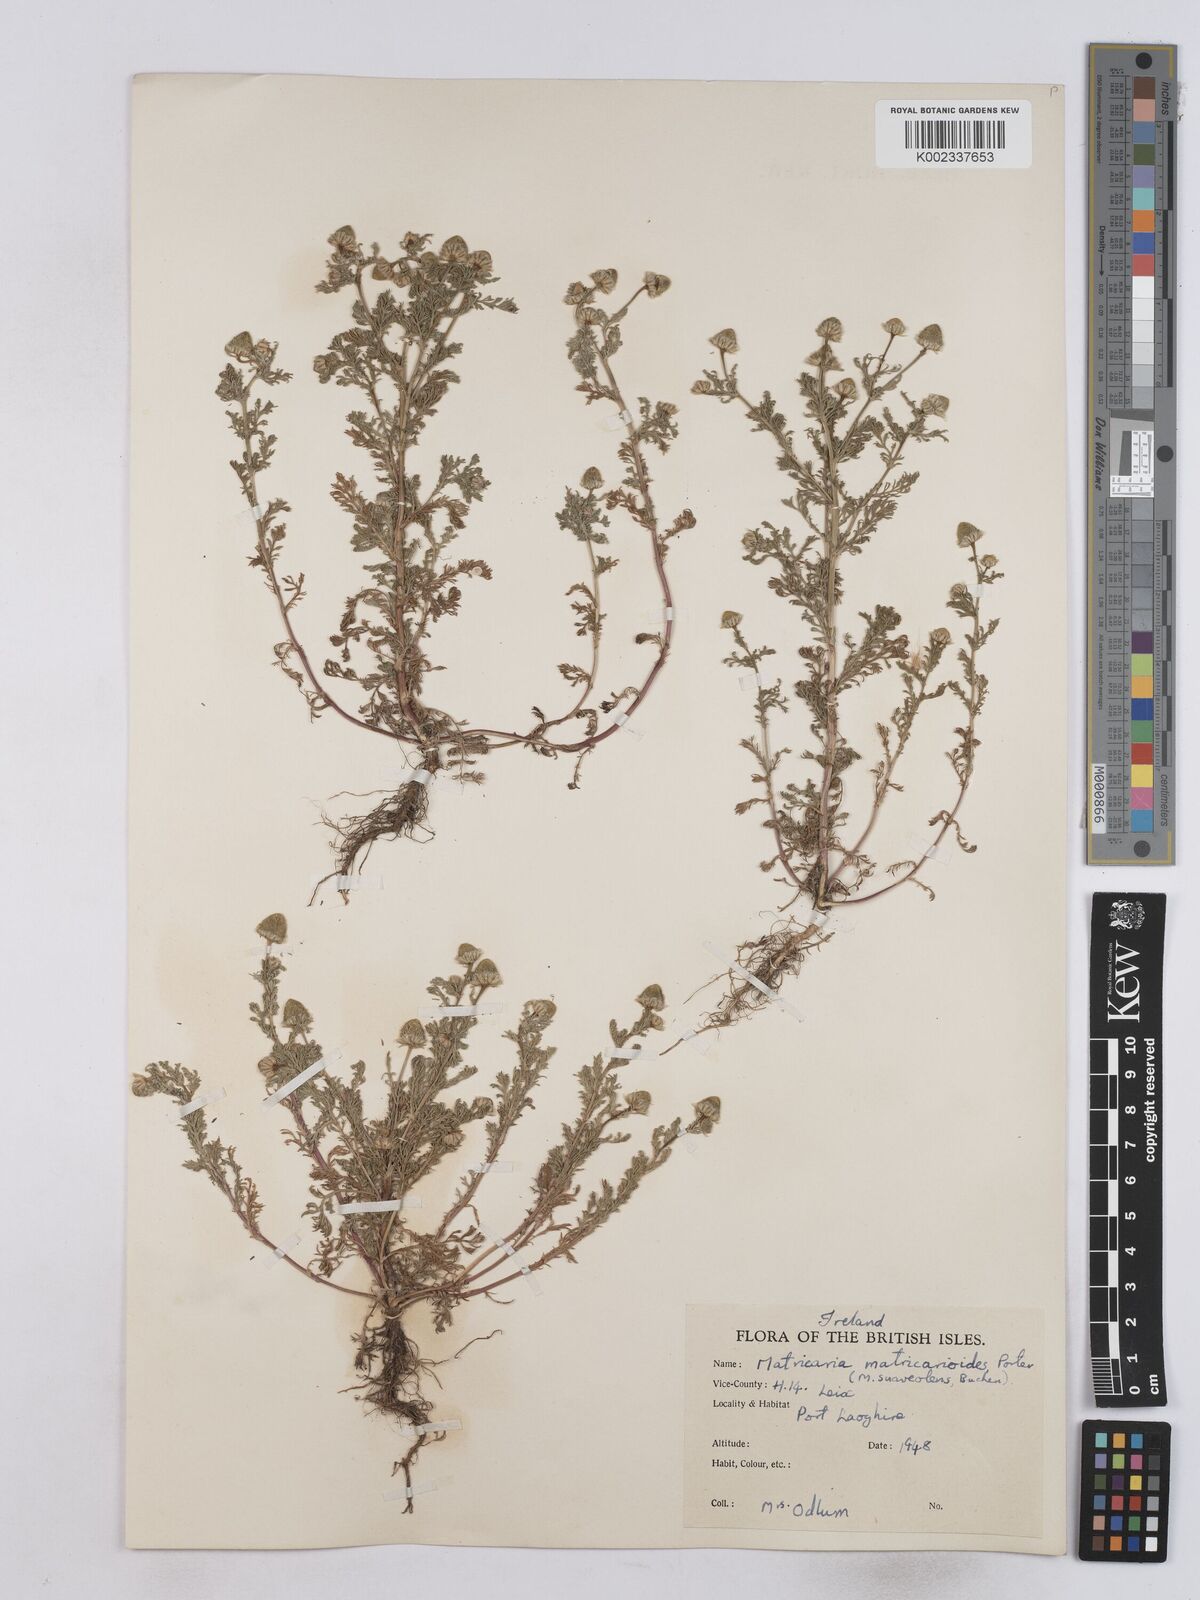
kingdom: Plantae
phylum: Tracheophyta
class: Magnoliopsida
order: Asterales
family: Asteraceae
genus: Matricaria
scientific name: Matricaria discoidea
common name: Disc mayweed
